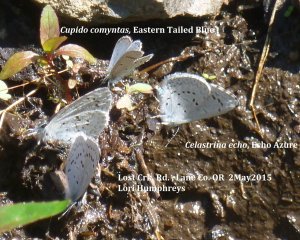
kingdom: Animalia
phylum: Arthropoda
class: Insecta
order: Lepidoptera
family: Lycaenidae
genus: Elkalyce
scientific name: Elkalyce comyntas
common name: Eastern Tailed-Blue
